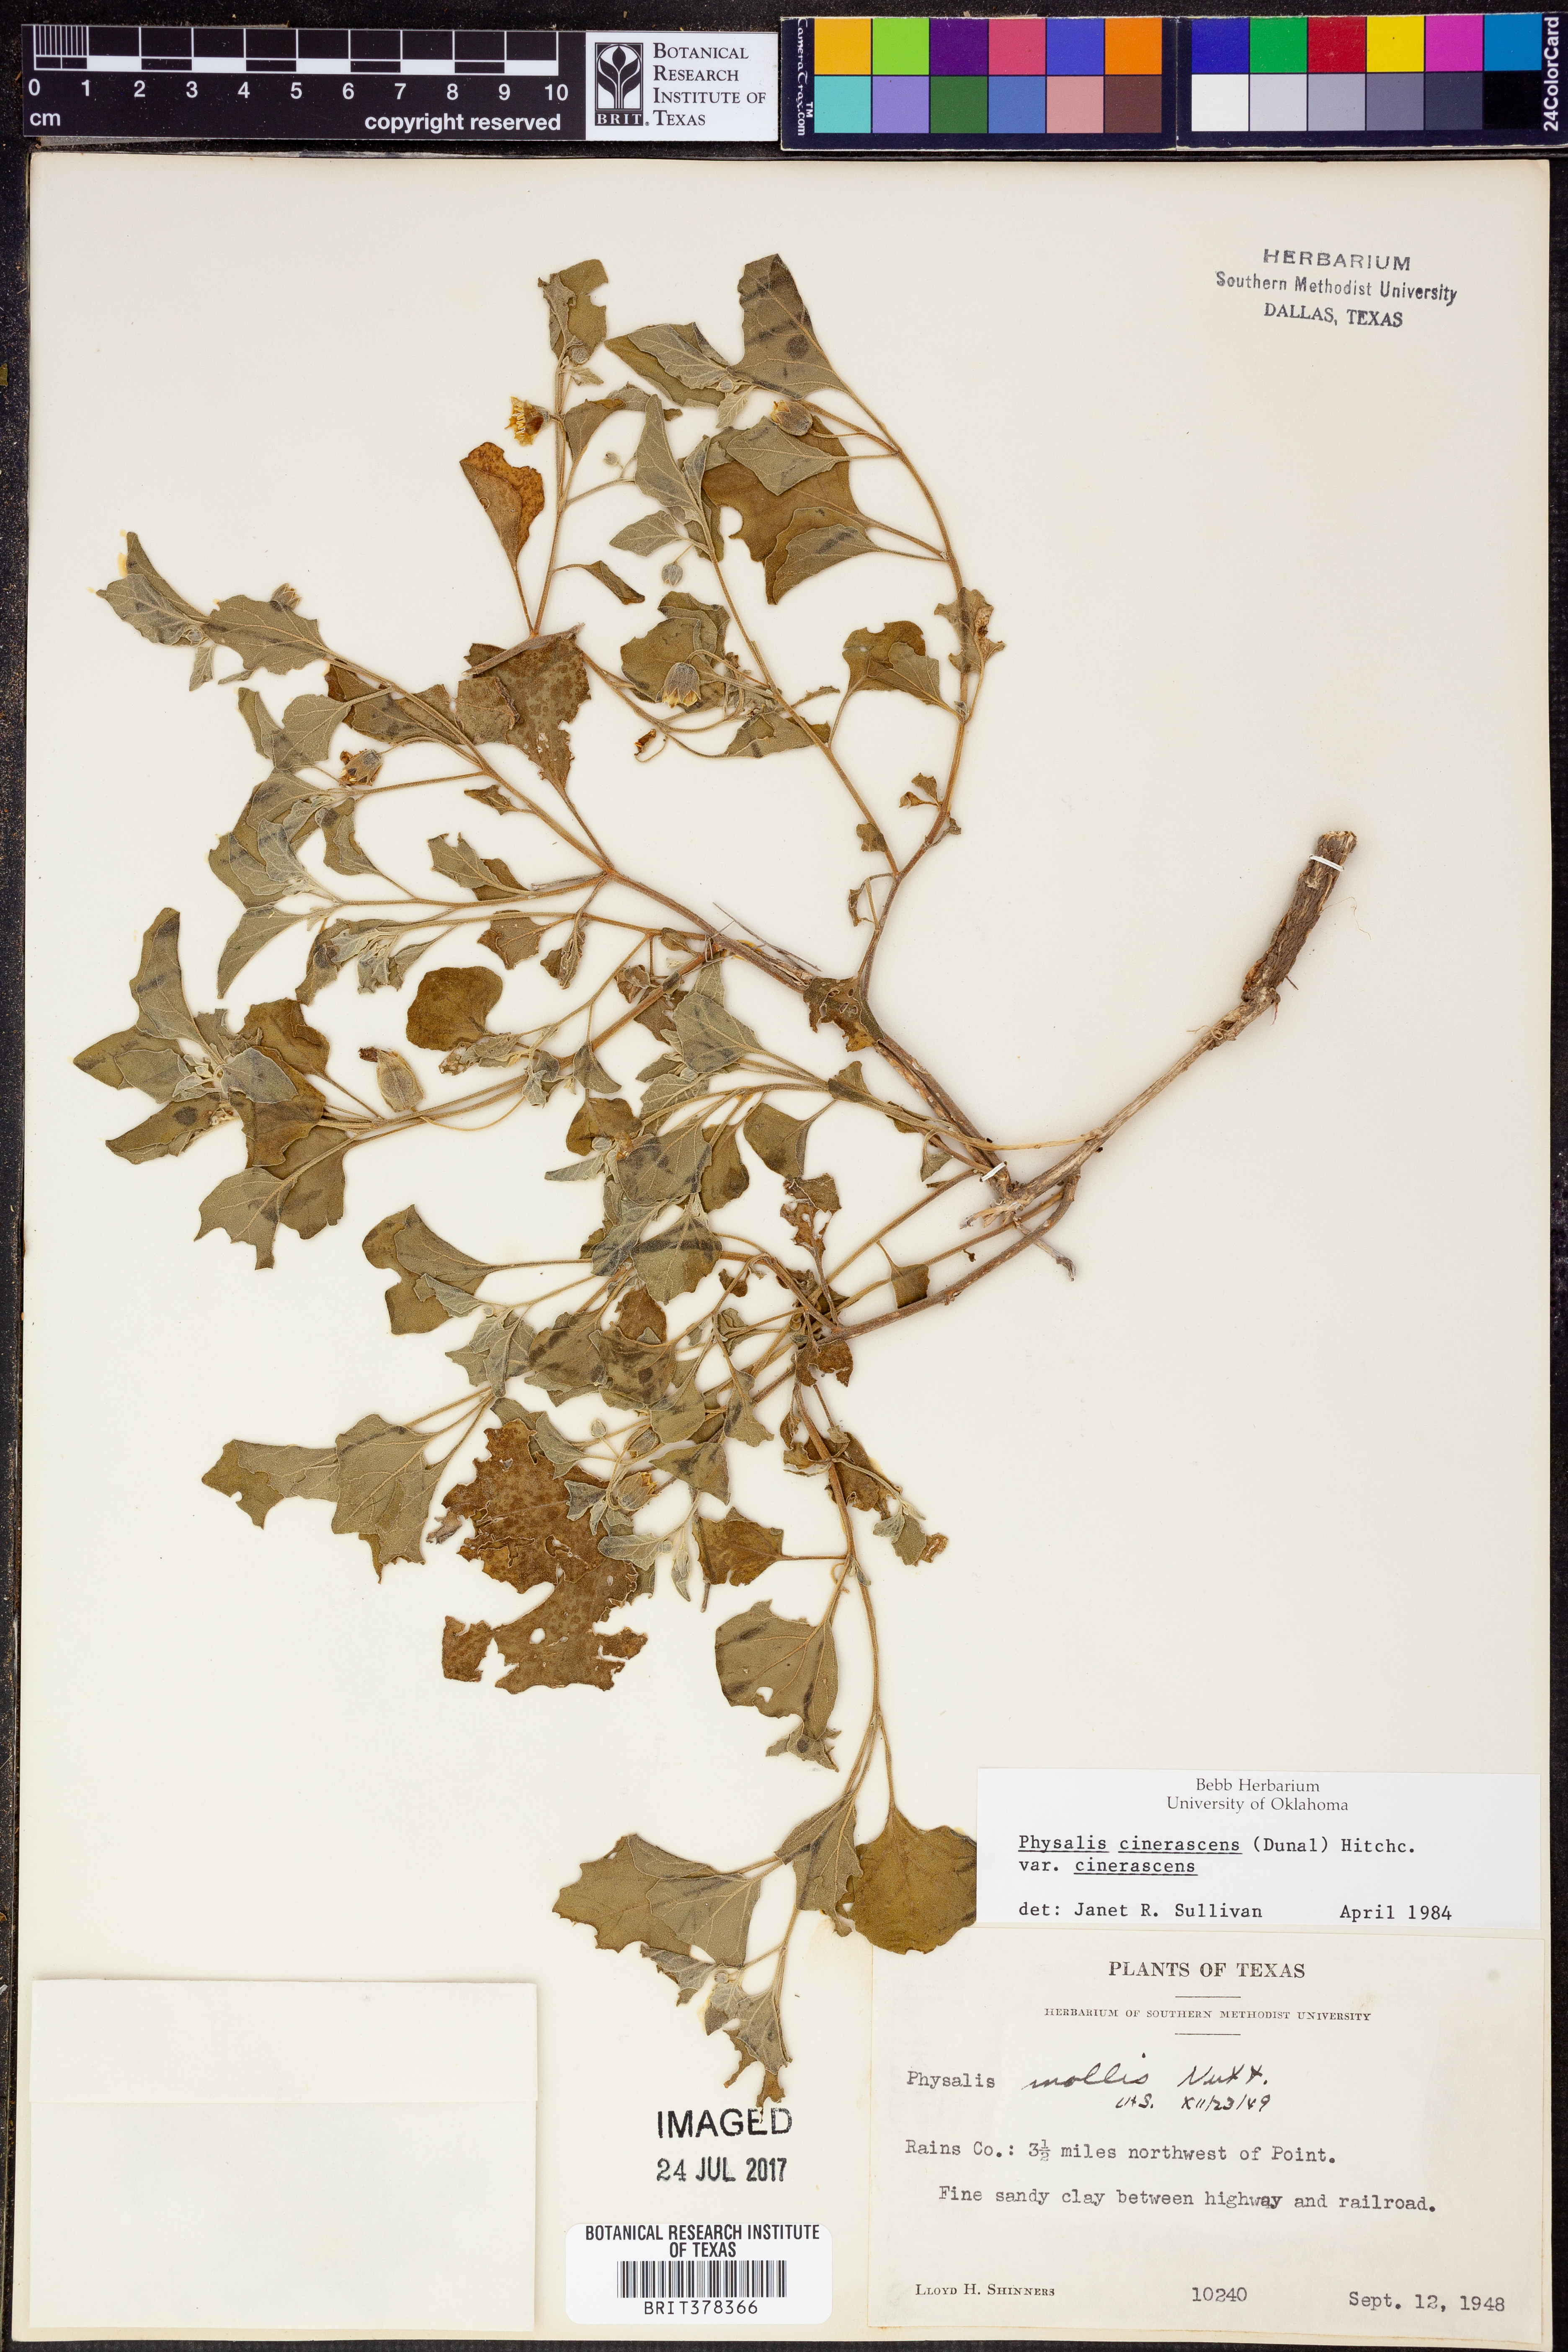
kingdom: Plantae
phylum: Tracheophyta
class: Magnoliopsida
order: Solanales
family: Solanaceae
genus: Physalis
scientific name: Physalis cinerascens
